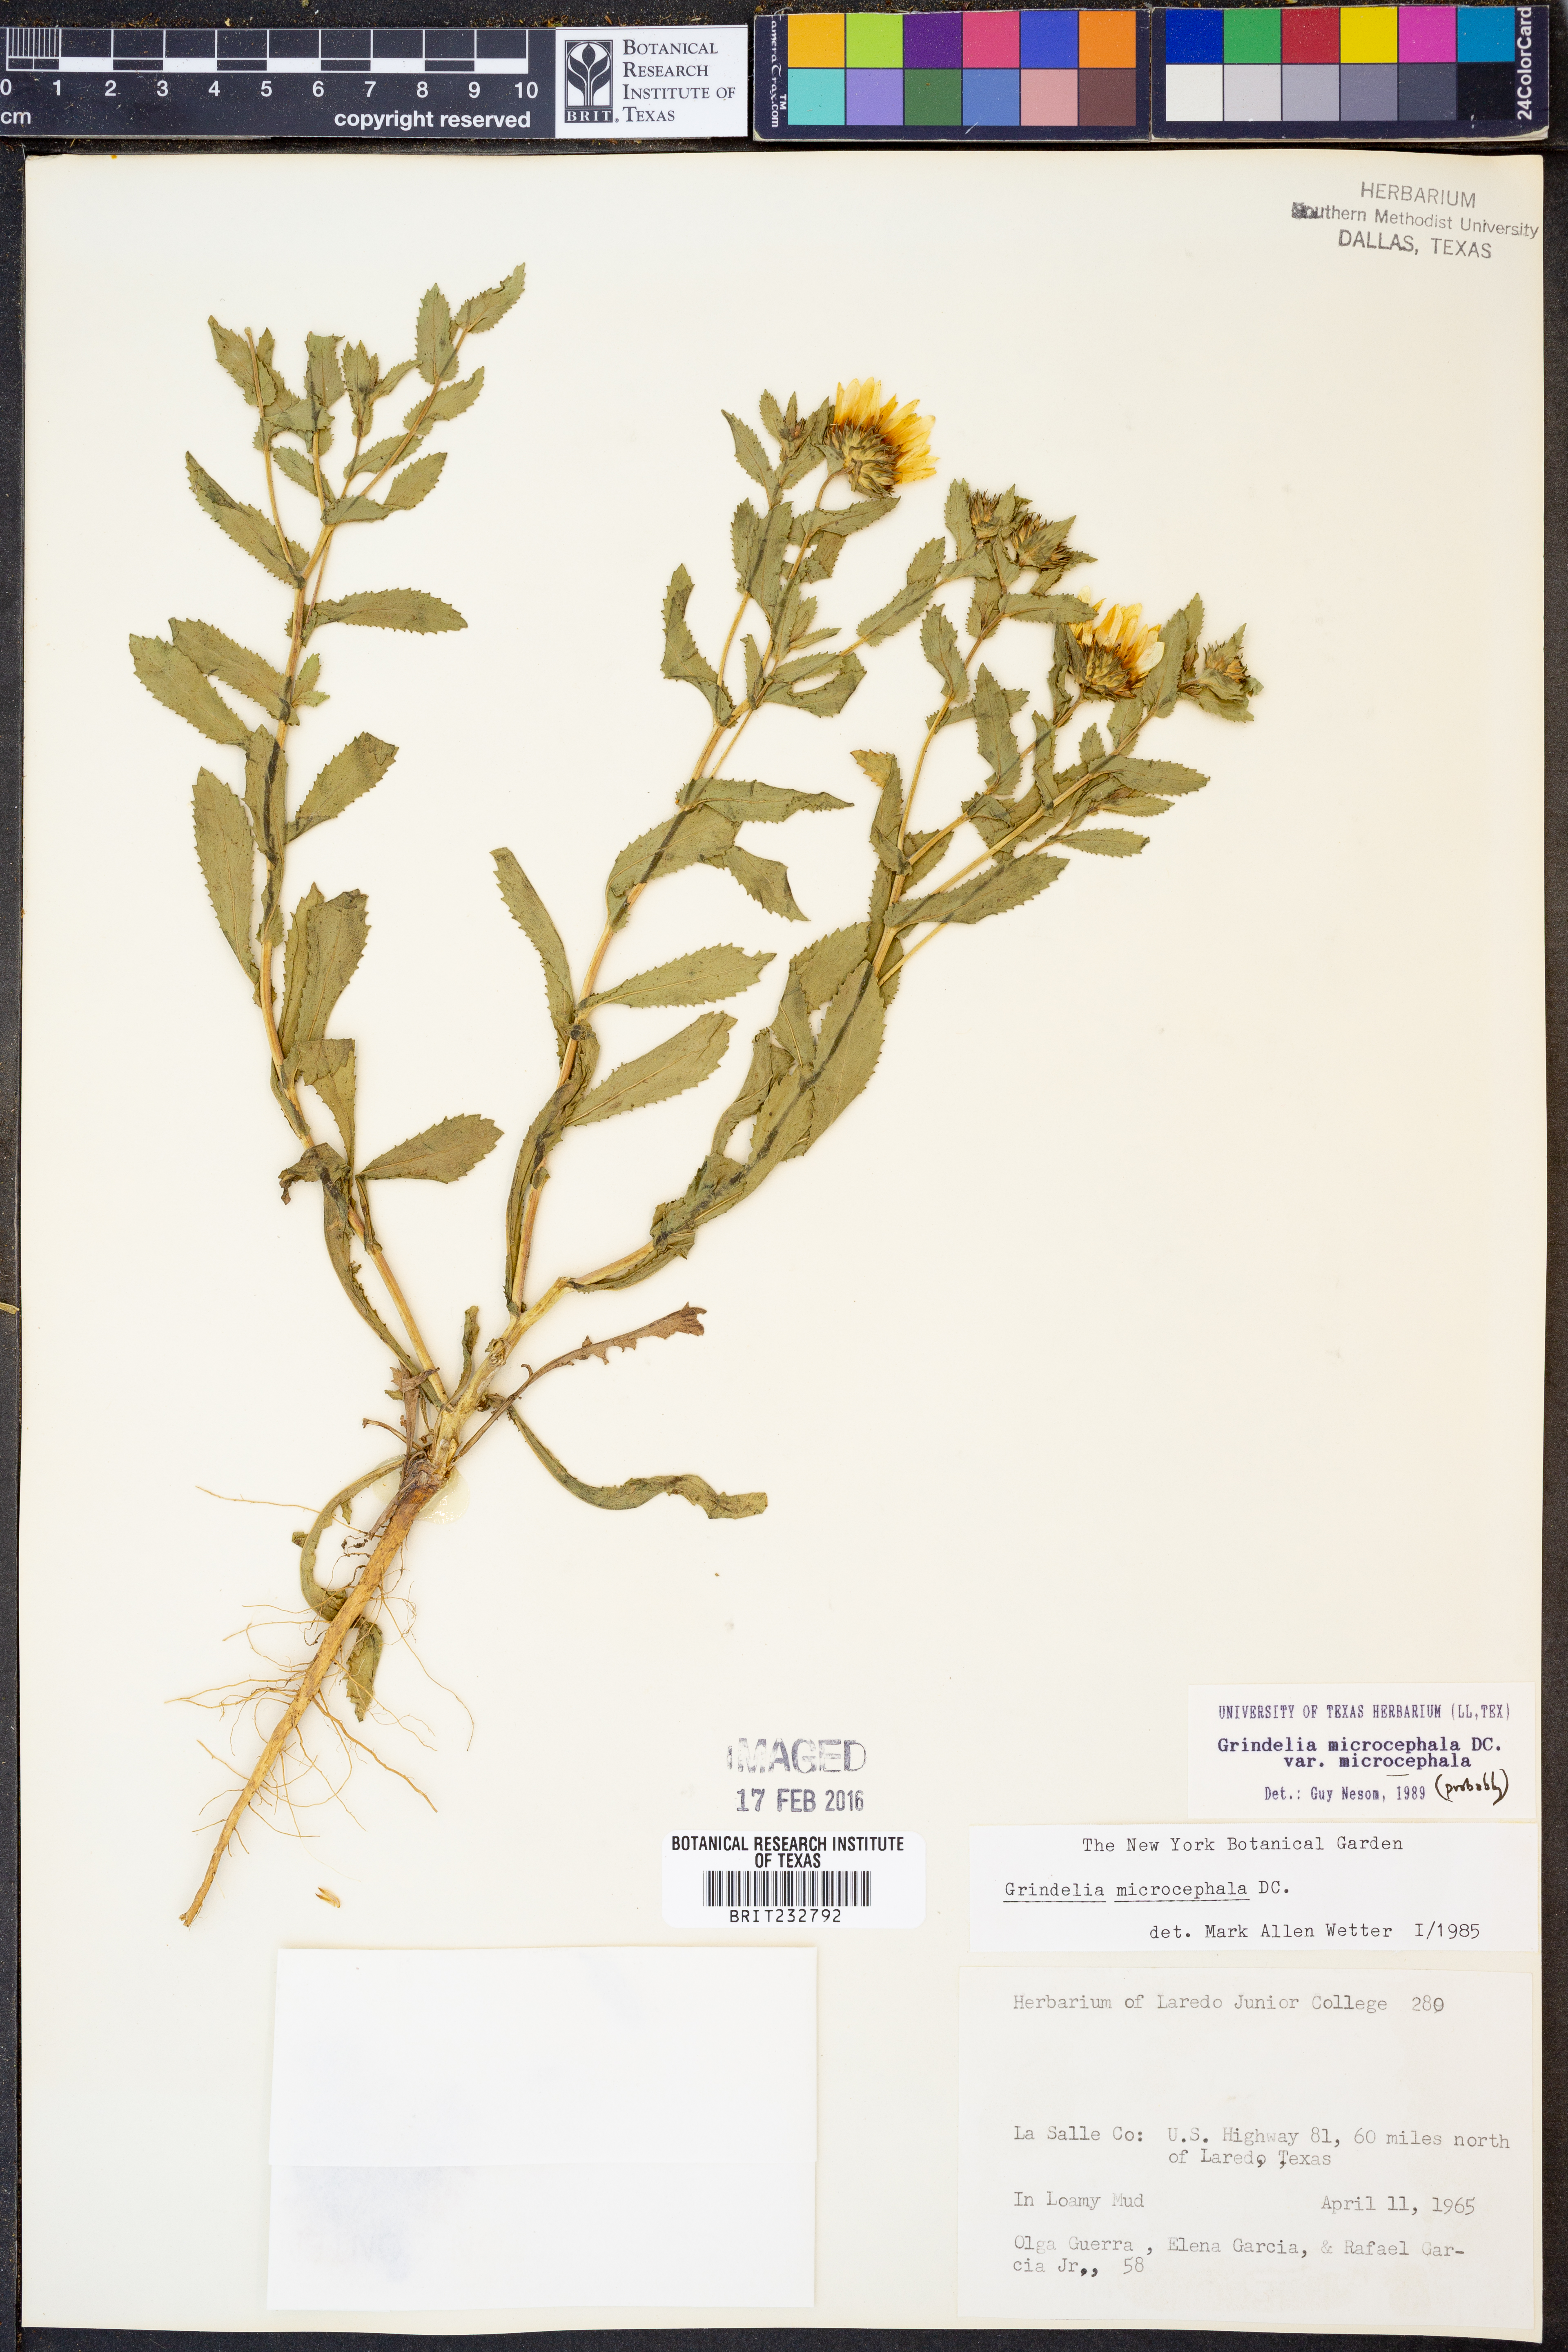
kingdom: Plantae
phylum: Tracheophyta
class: Magnoliopsida
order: Asterales
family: Asteraceae
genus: Grindelia
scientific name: Grindelia microcephala
